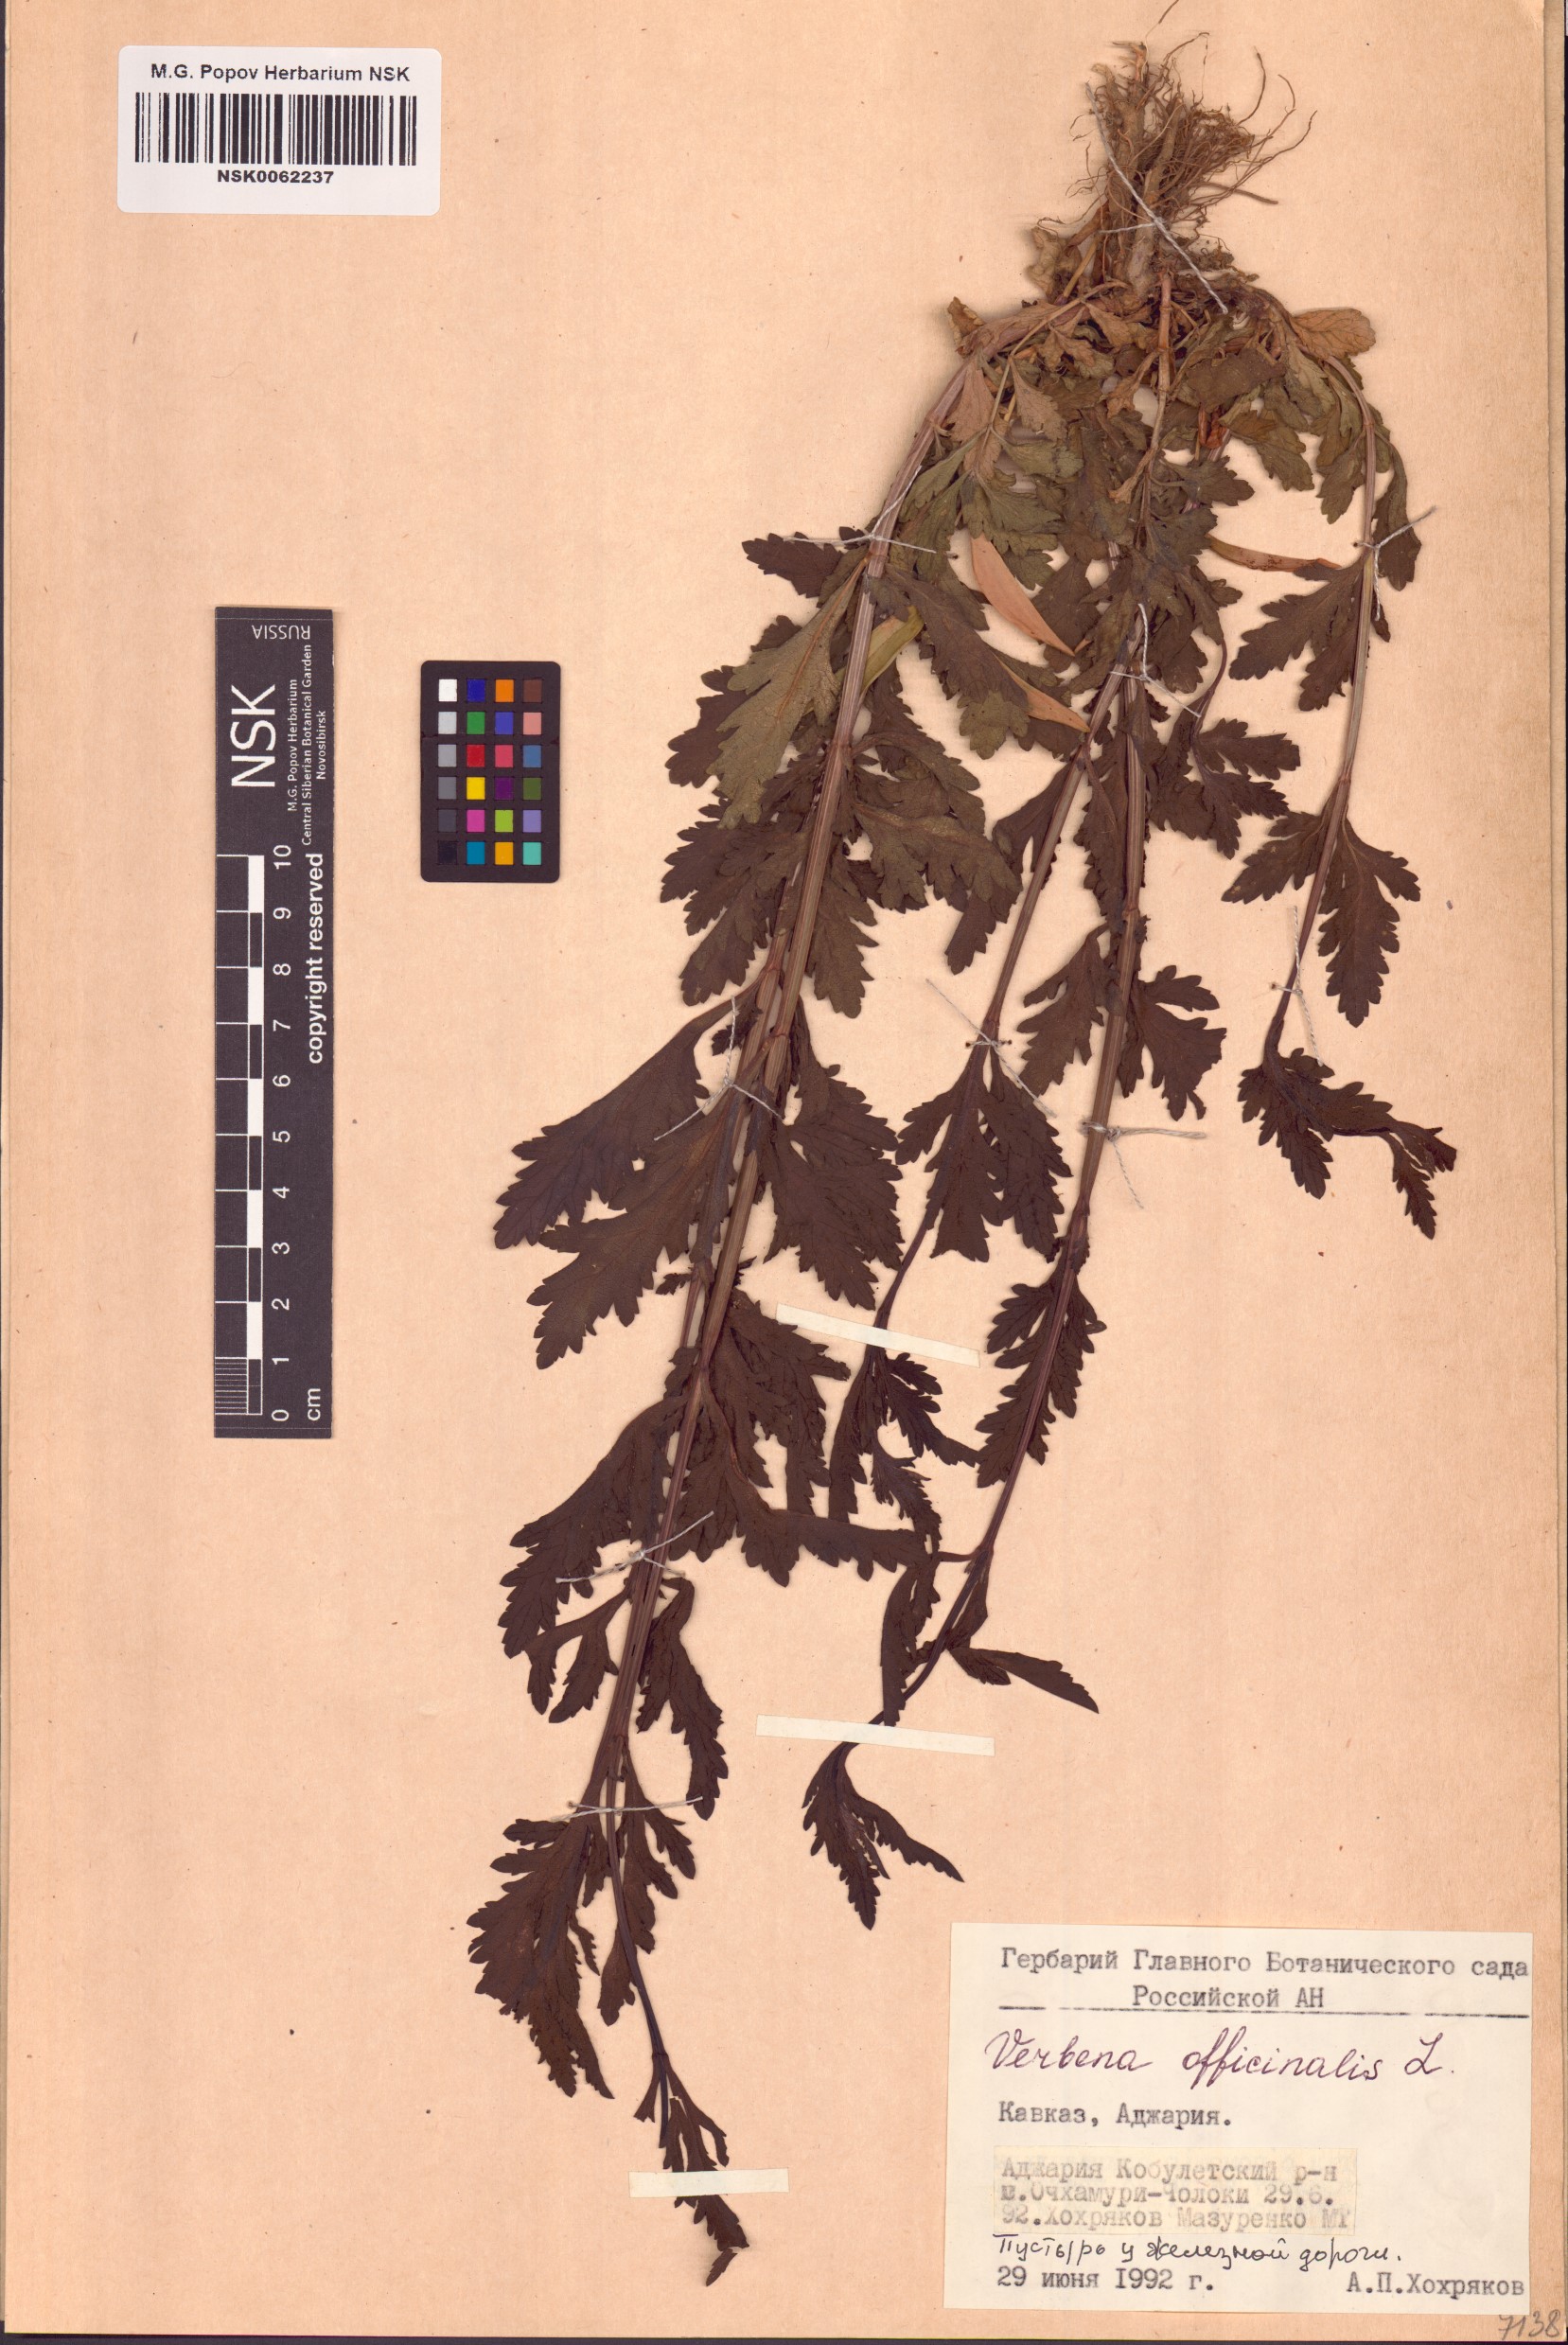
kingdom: Plantae
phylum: Tracheophyta
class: Magnoliopsida
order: Lamiales
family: Verbenaceae
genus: Verbena
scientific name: Verbena officinalis
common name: Vervain
